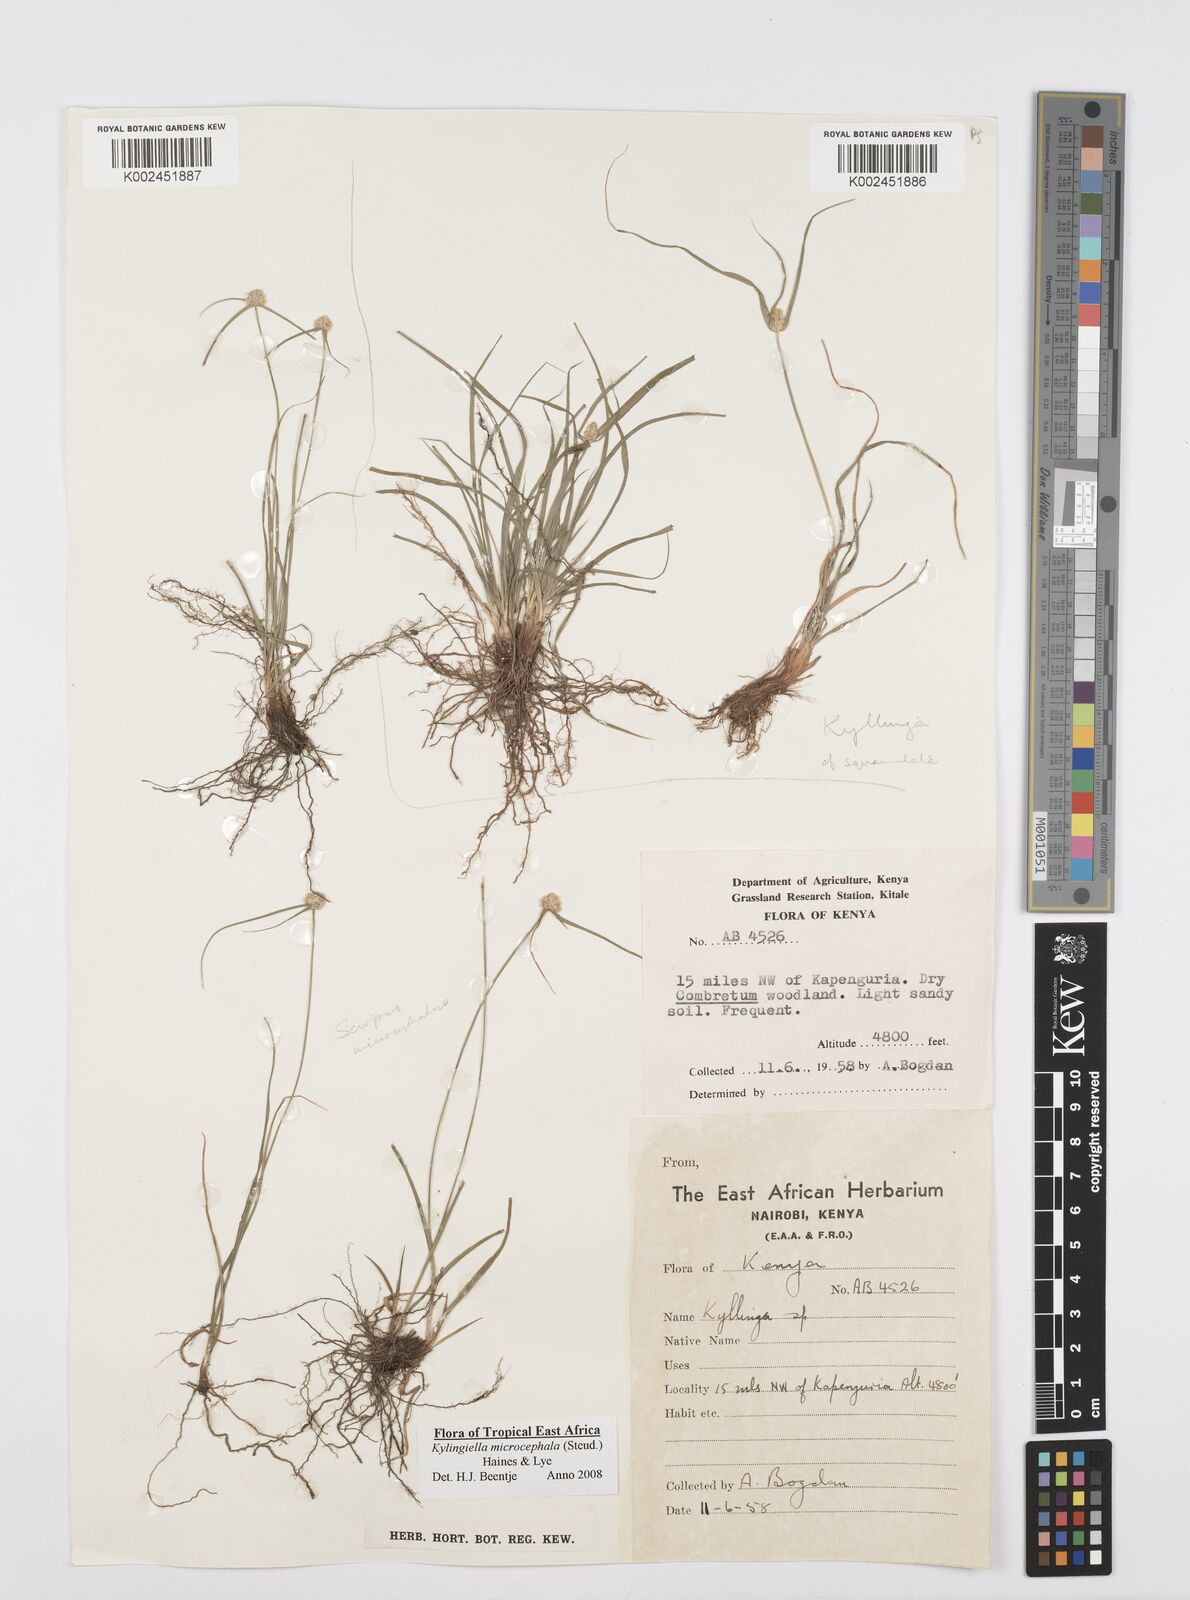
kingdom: Plantae
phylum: Tracheophyta
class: Liliopsida
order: Poales
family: Cyperaceae
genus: Cyperus
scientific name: Cyperus microcephalus
